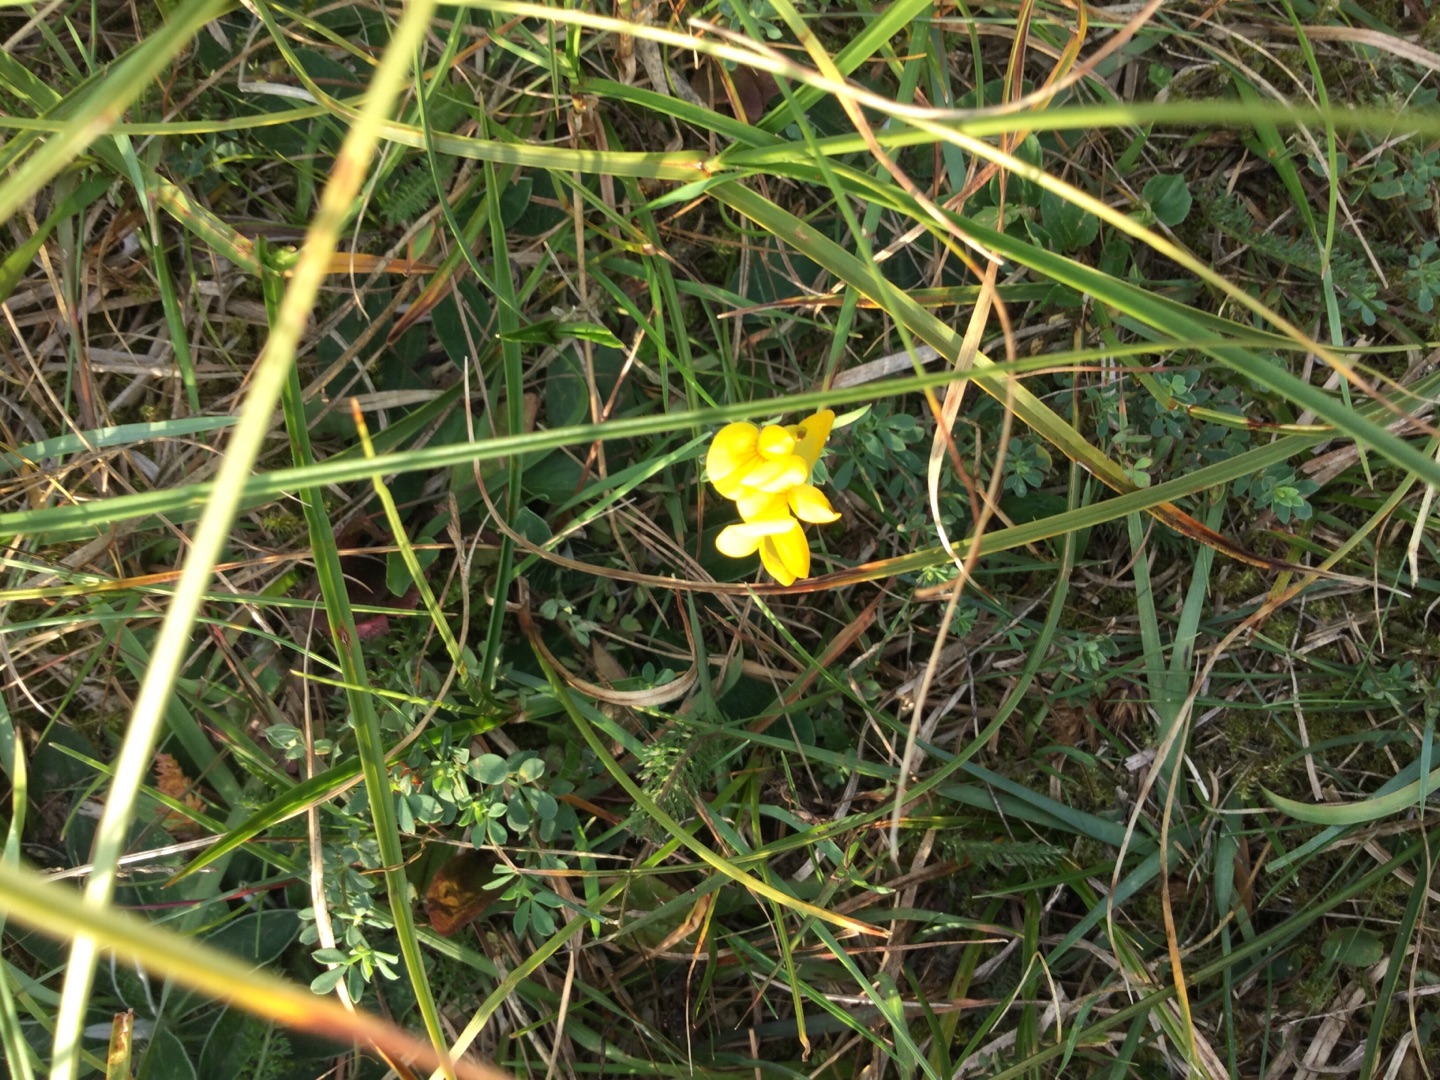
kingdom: Plantae
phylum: Tracheophyta
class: Magnoliopsida
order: Fabales
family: Fabaceae
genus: Lotus
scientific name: Lotus corniculatus
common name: Almindelig kællingetand
